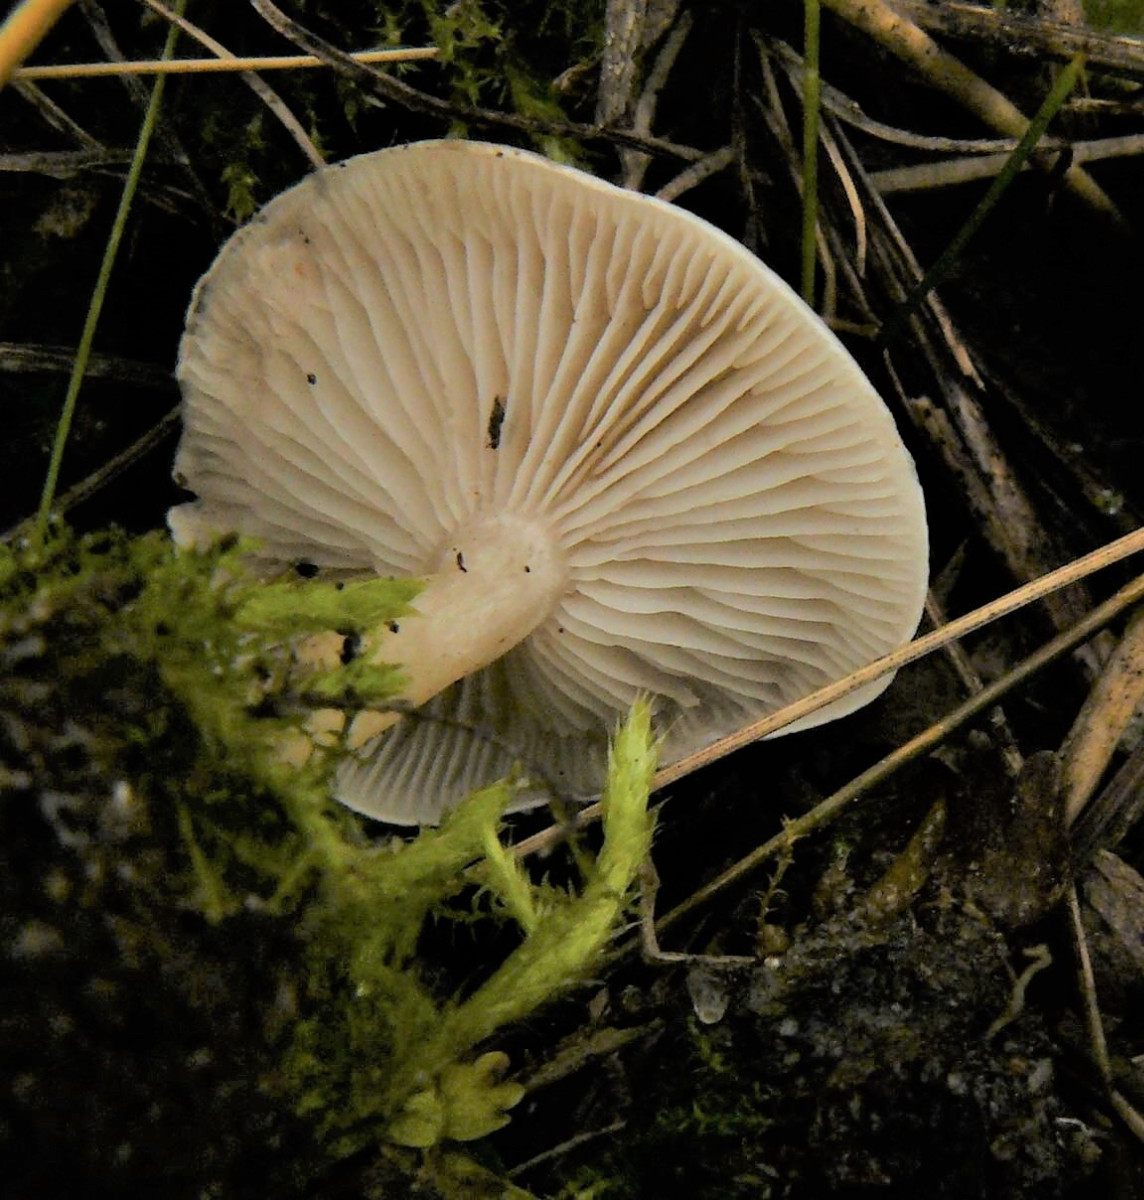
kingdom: Fungi
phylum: Basidiomycota
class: Agaricomycetes
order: Agaricales
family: Tricholomataceae
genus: Leucocybe
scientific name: Leucocybe candicans
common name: kridt-tragthat
